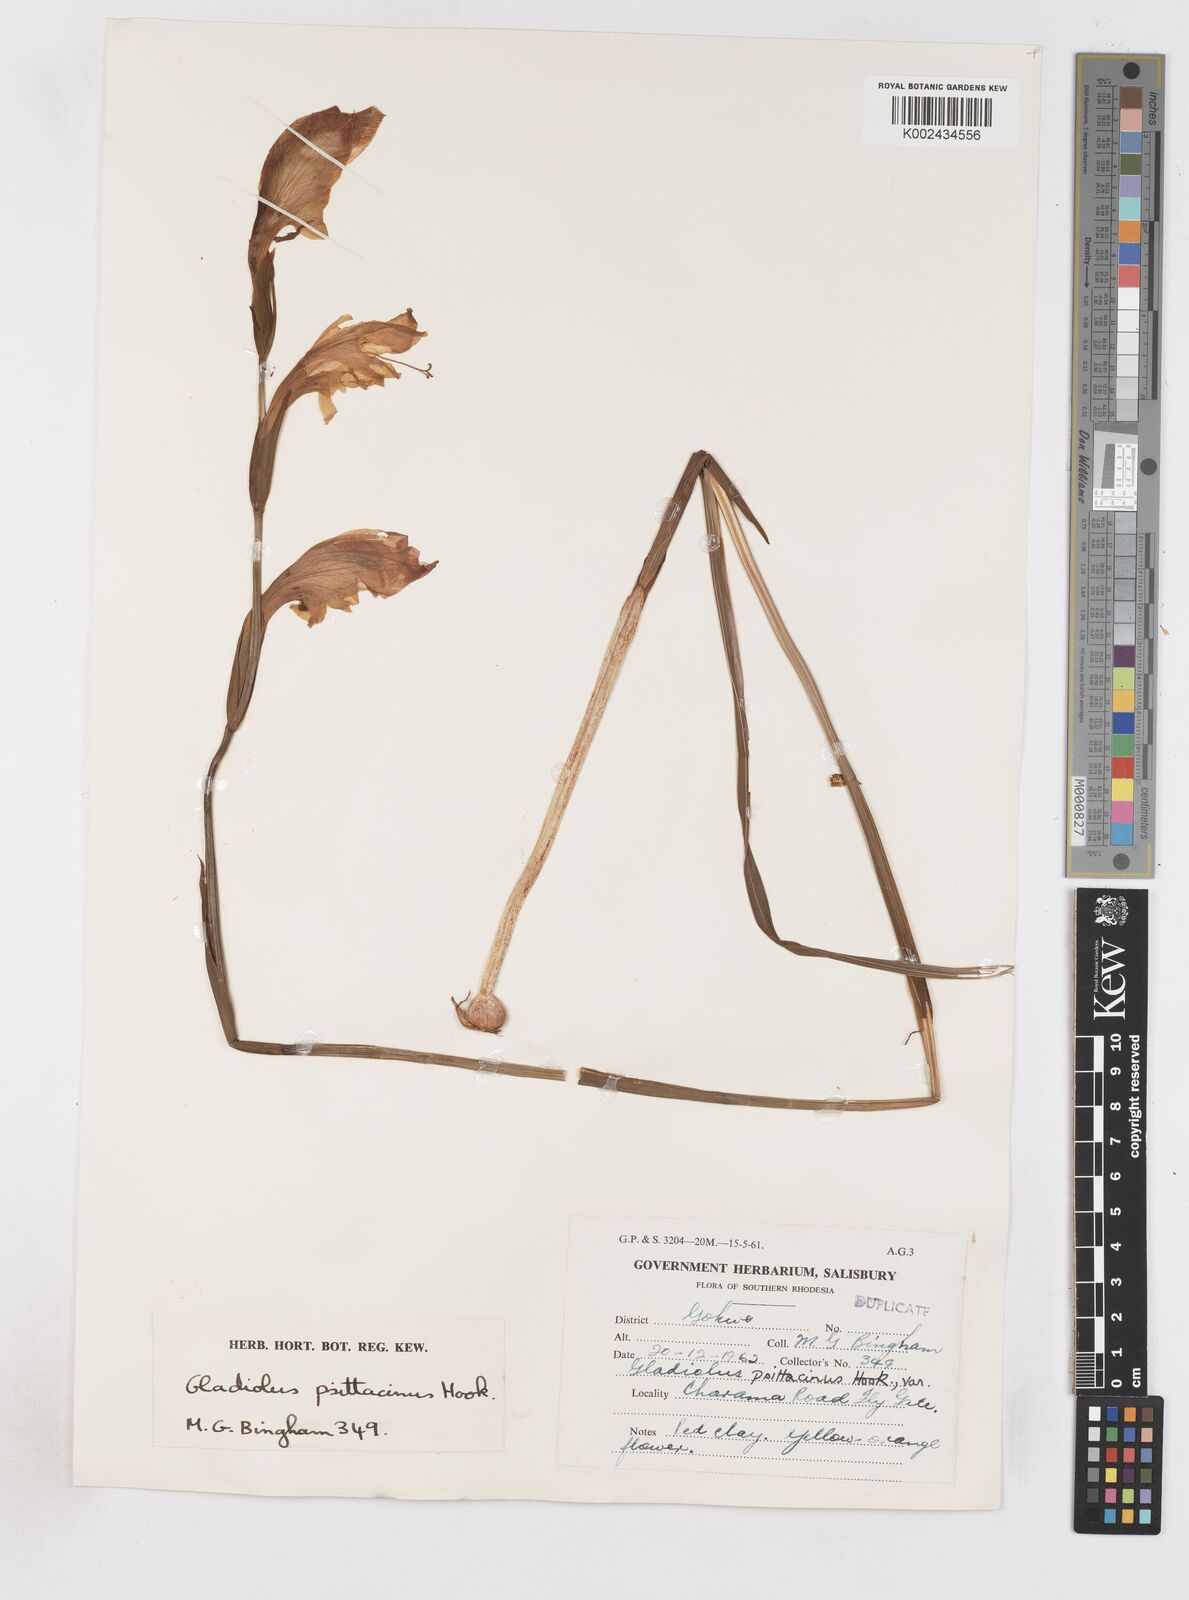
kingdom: Plantae
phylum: Tracheophyta
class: Liliopsida
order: Asparagales
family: Iridaceae
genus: Gladiolus
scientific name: Gladiolus dalenii
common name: Cornflag
